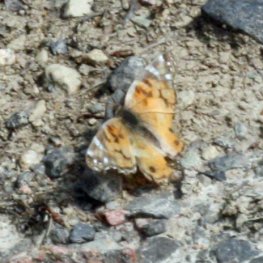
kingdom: Animalia
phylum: Arthropoda
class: Insecta
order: Lepidoptera
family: Nymphalidae
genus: Vanessa
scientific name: Vanessa virginiensis
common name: American Lady
